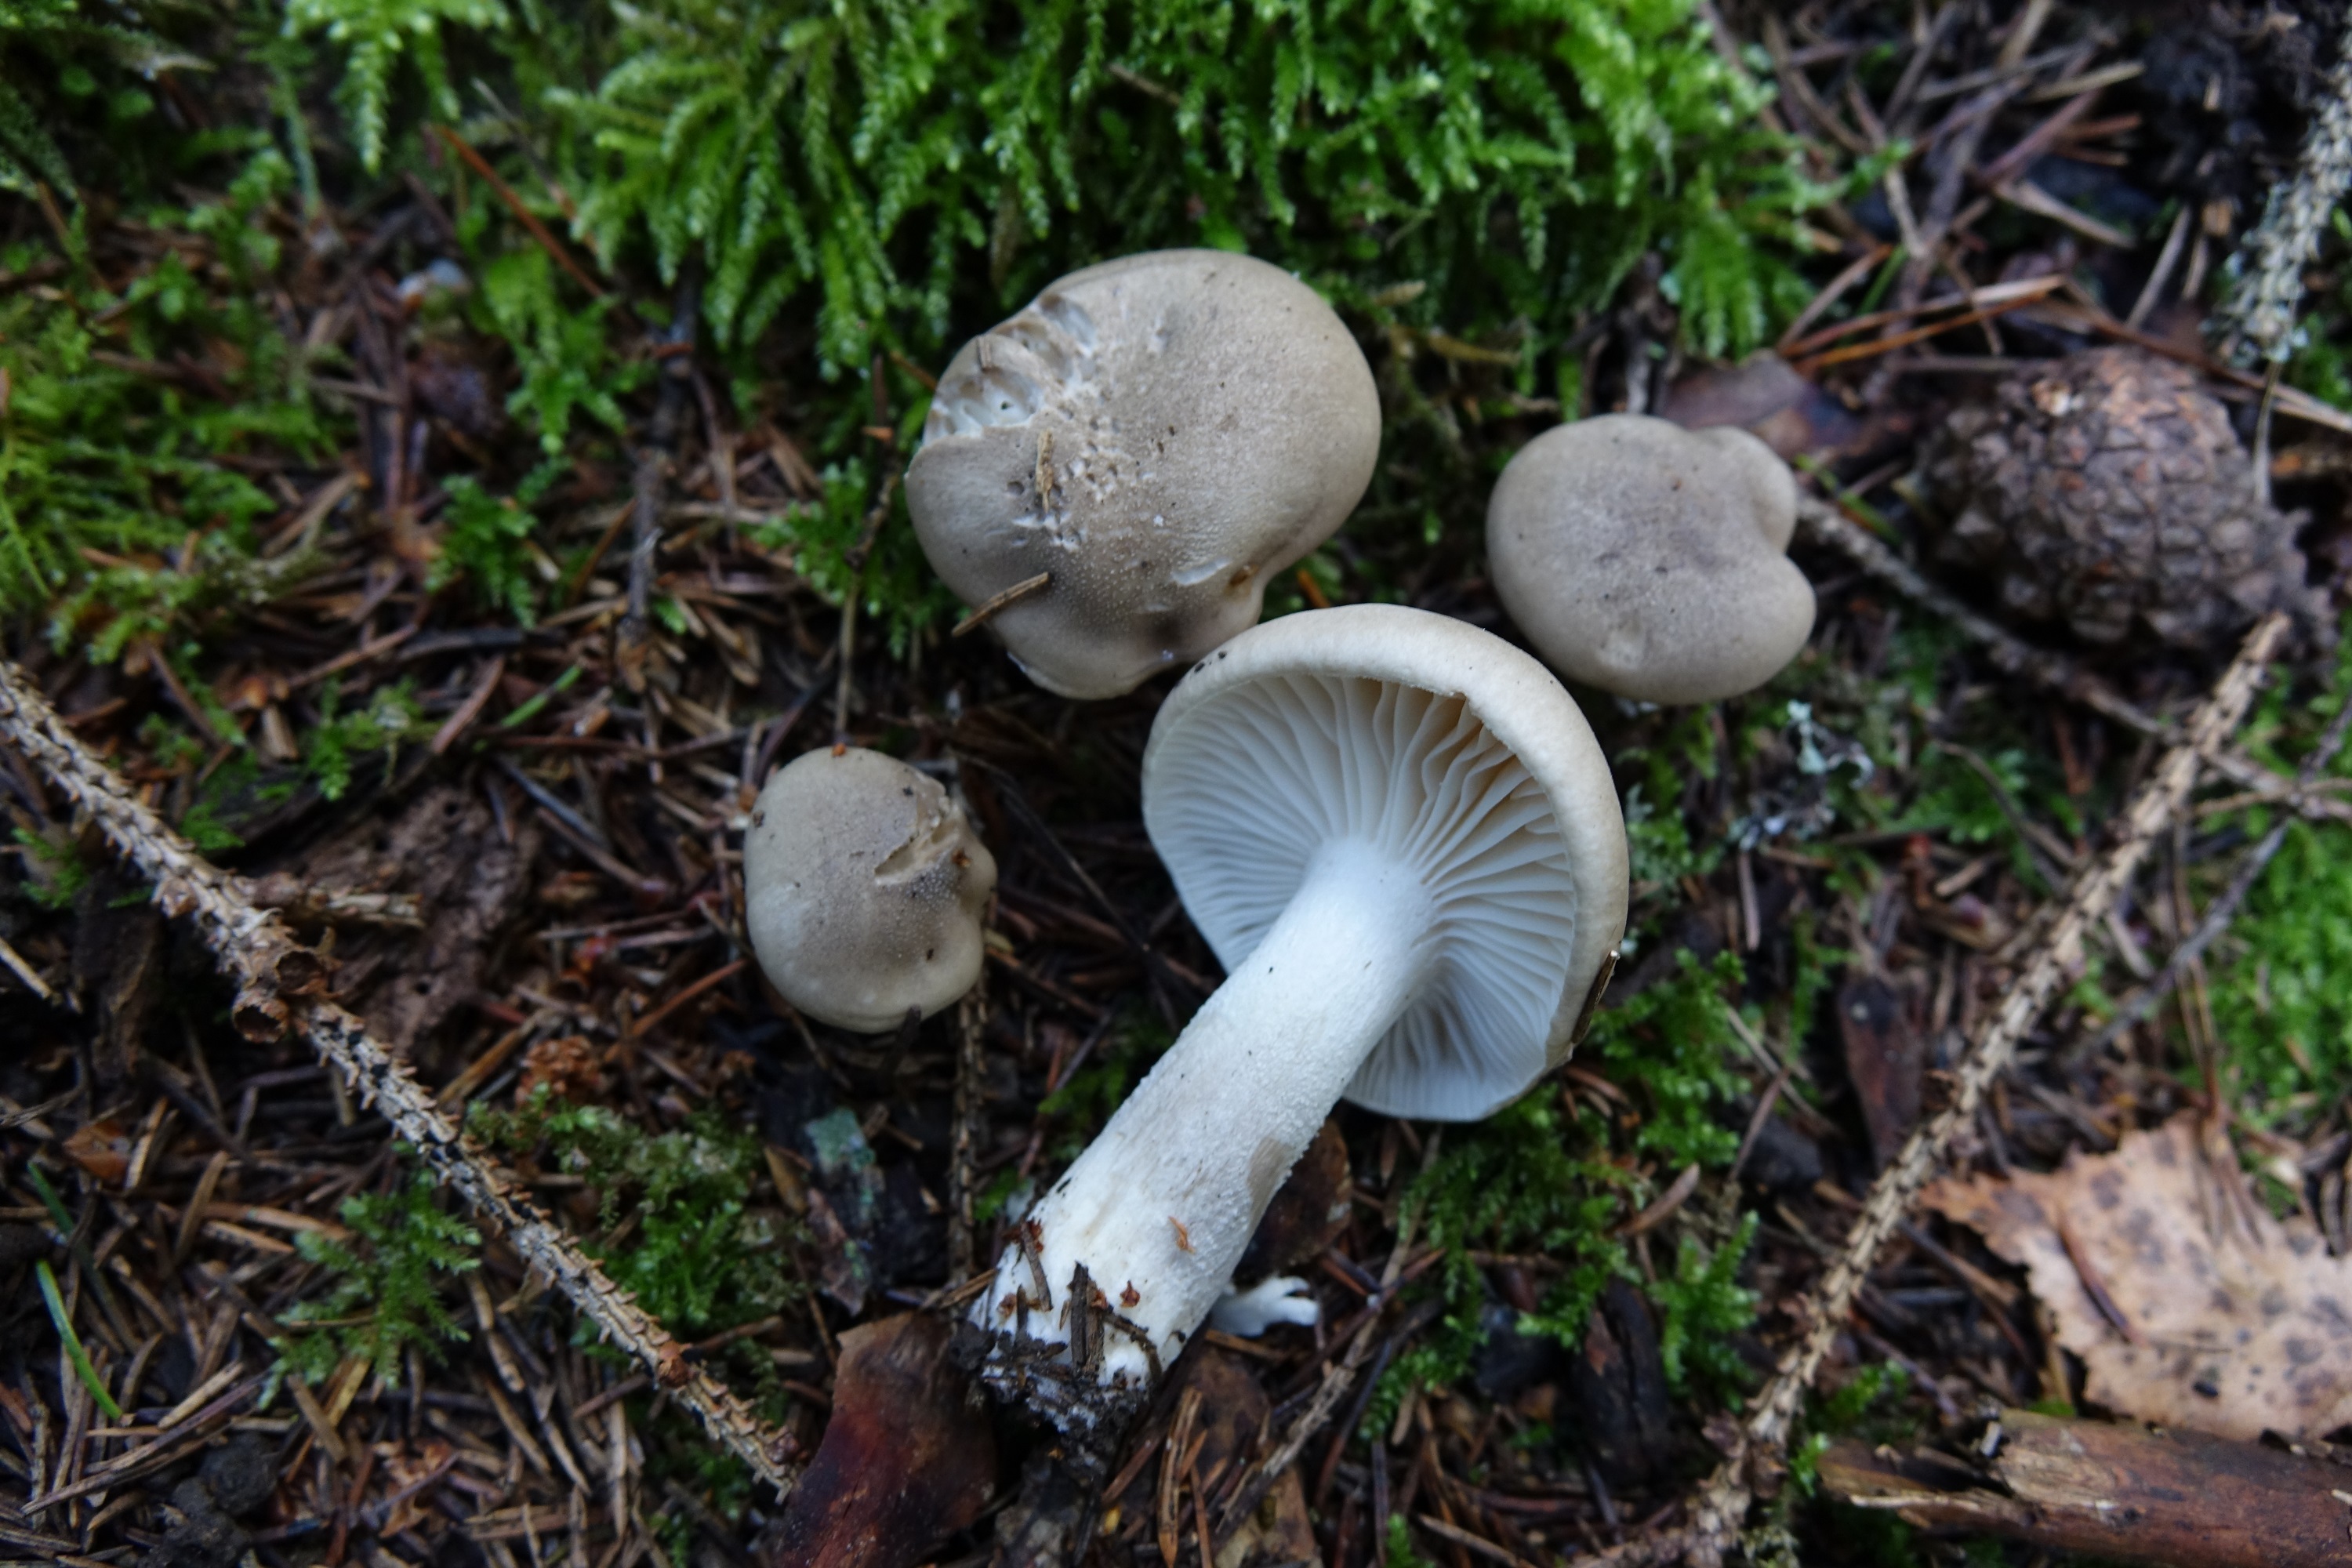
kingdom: Fungi
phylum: Basidiomycota
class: Agaricomycetes
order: Agaricales
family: Hygrophoraceae
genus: Hygrophorus
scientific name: Hygrophorus agathosmus
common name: Almond woodwax
